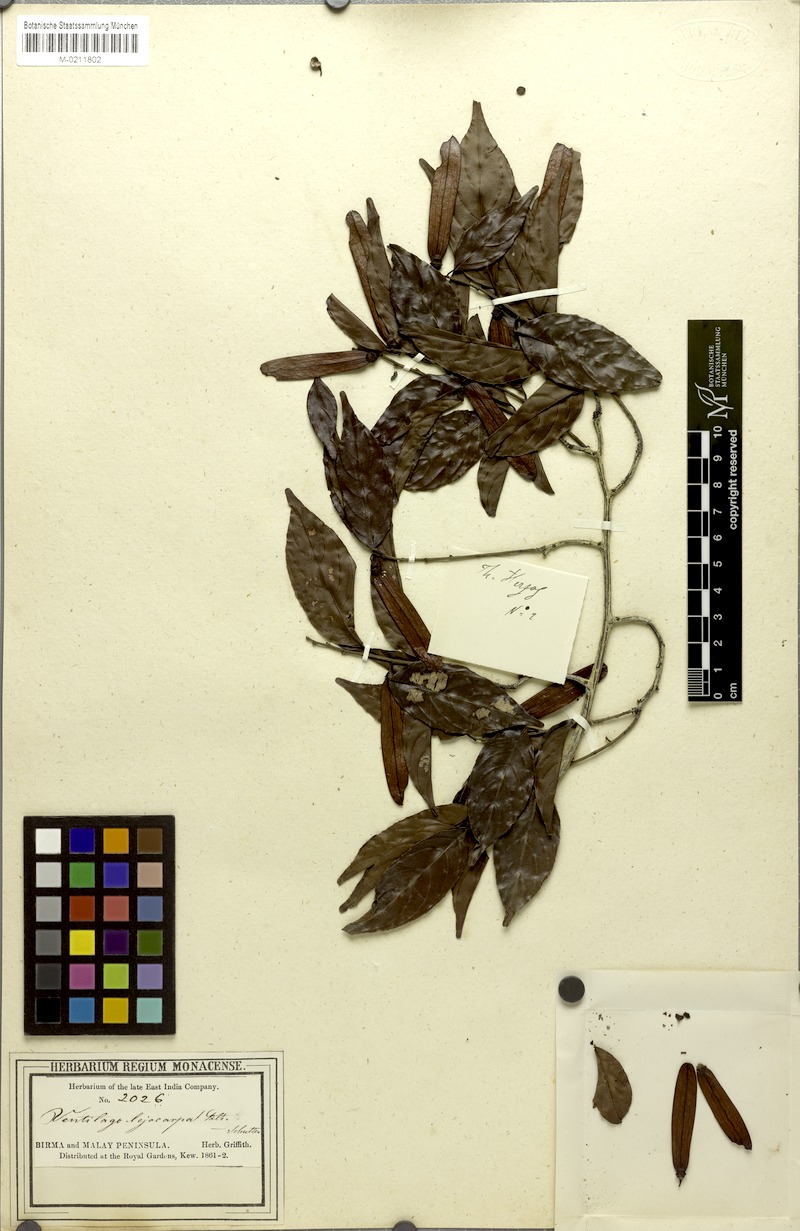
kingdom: Plantae
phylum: Tracheophyta
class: Magnoliopsida
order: Rosales
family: Rhamnaceae
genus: Ventilago
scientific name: Ventilago diffusa
